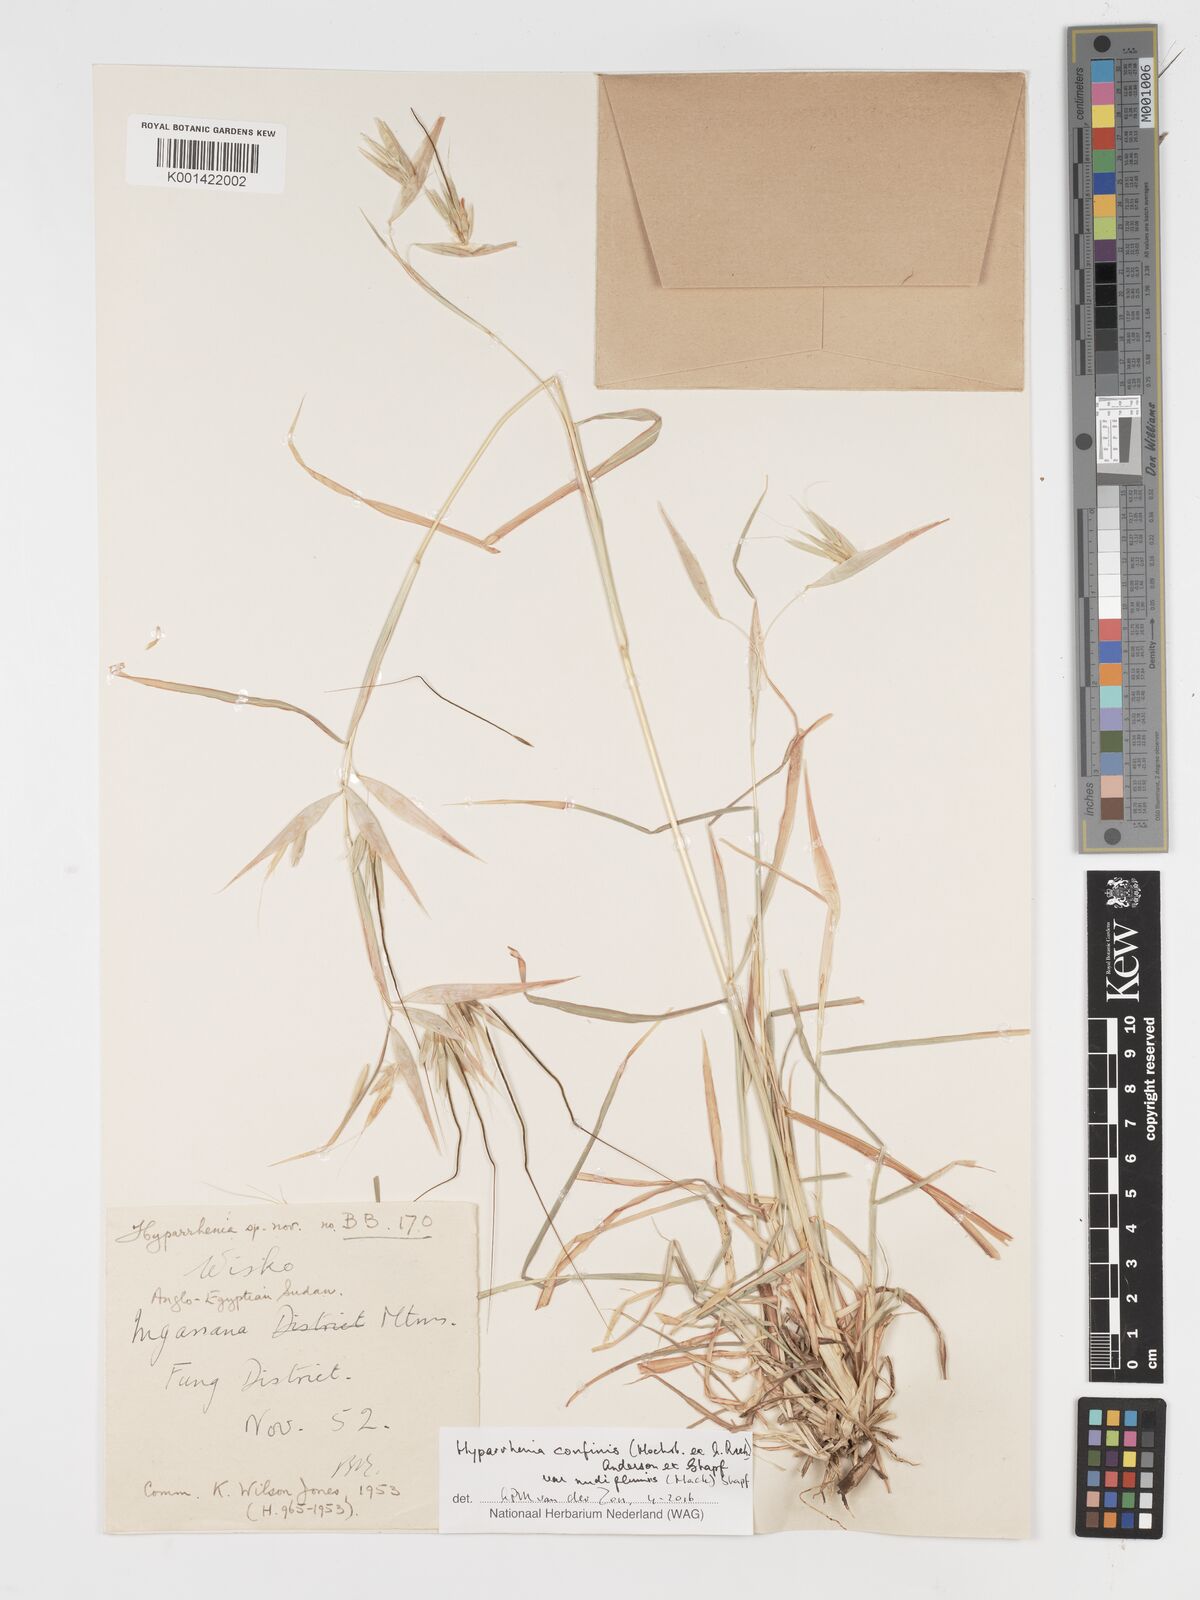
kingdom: Plantae
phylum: Tracheophyta
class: Liliopsida
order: Poales
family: Poaceae
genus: Hyparrhenia
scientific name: Hyparrhenia confinis
